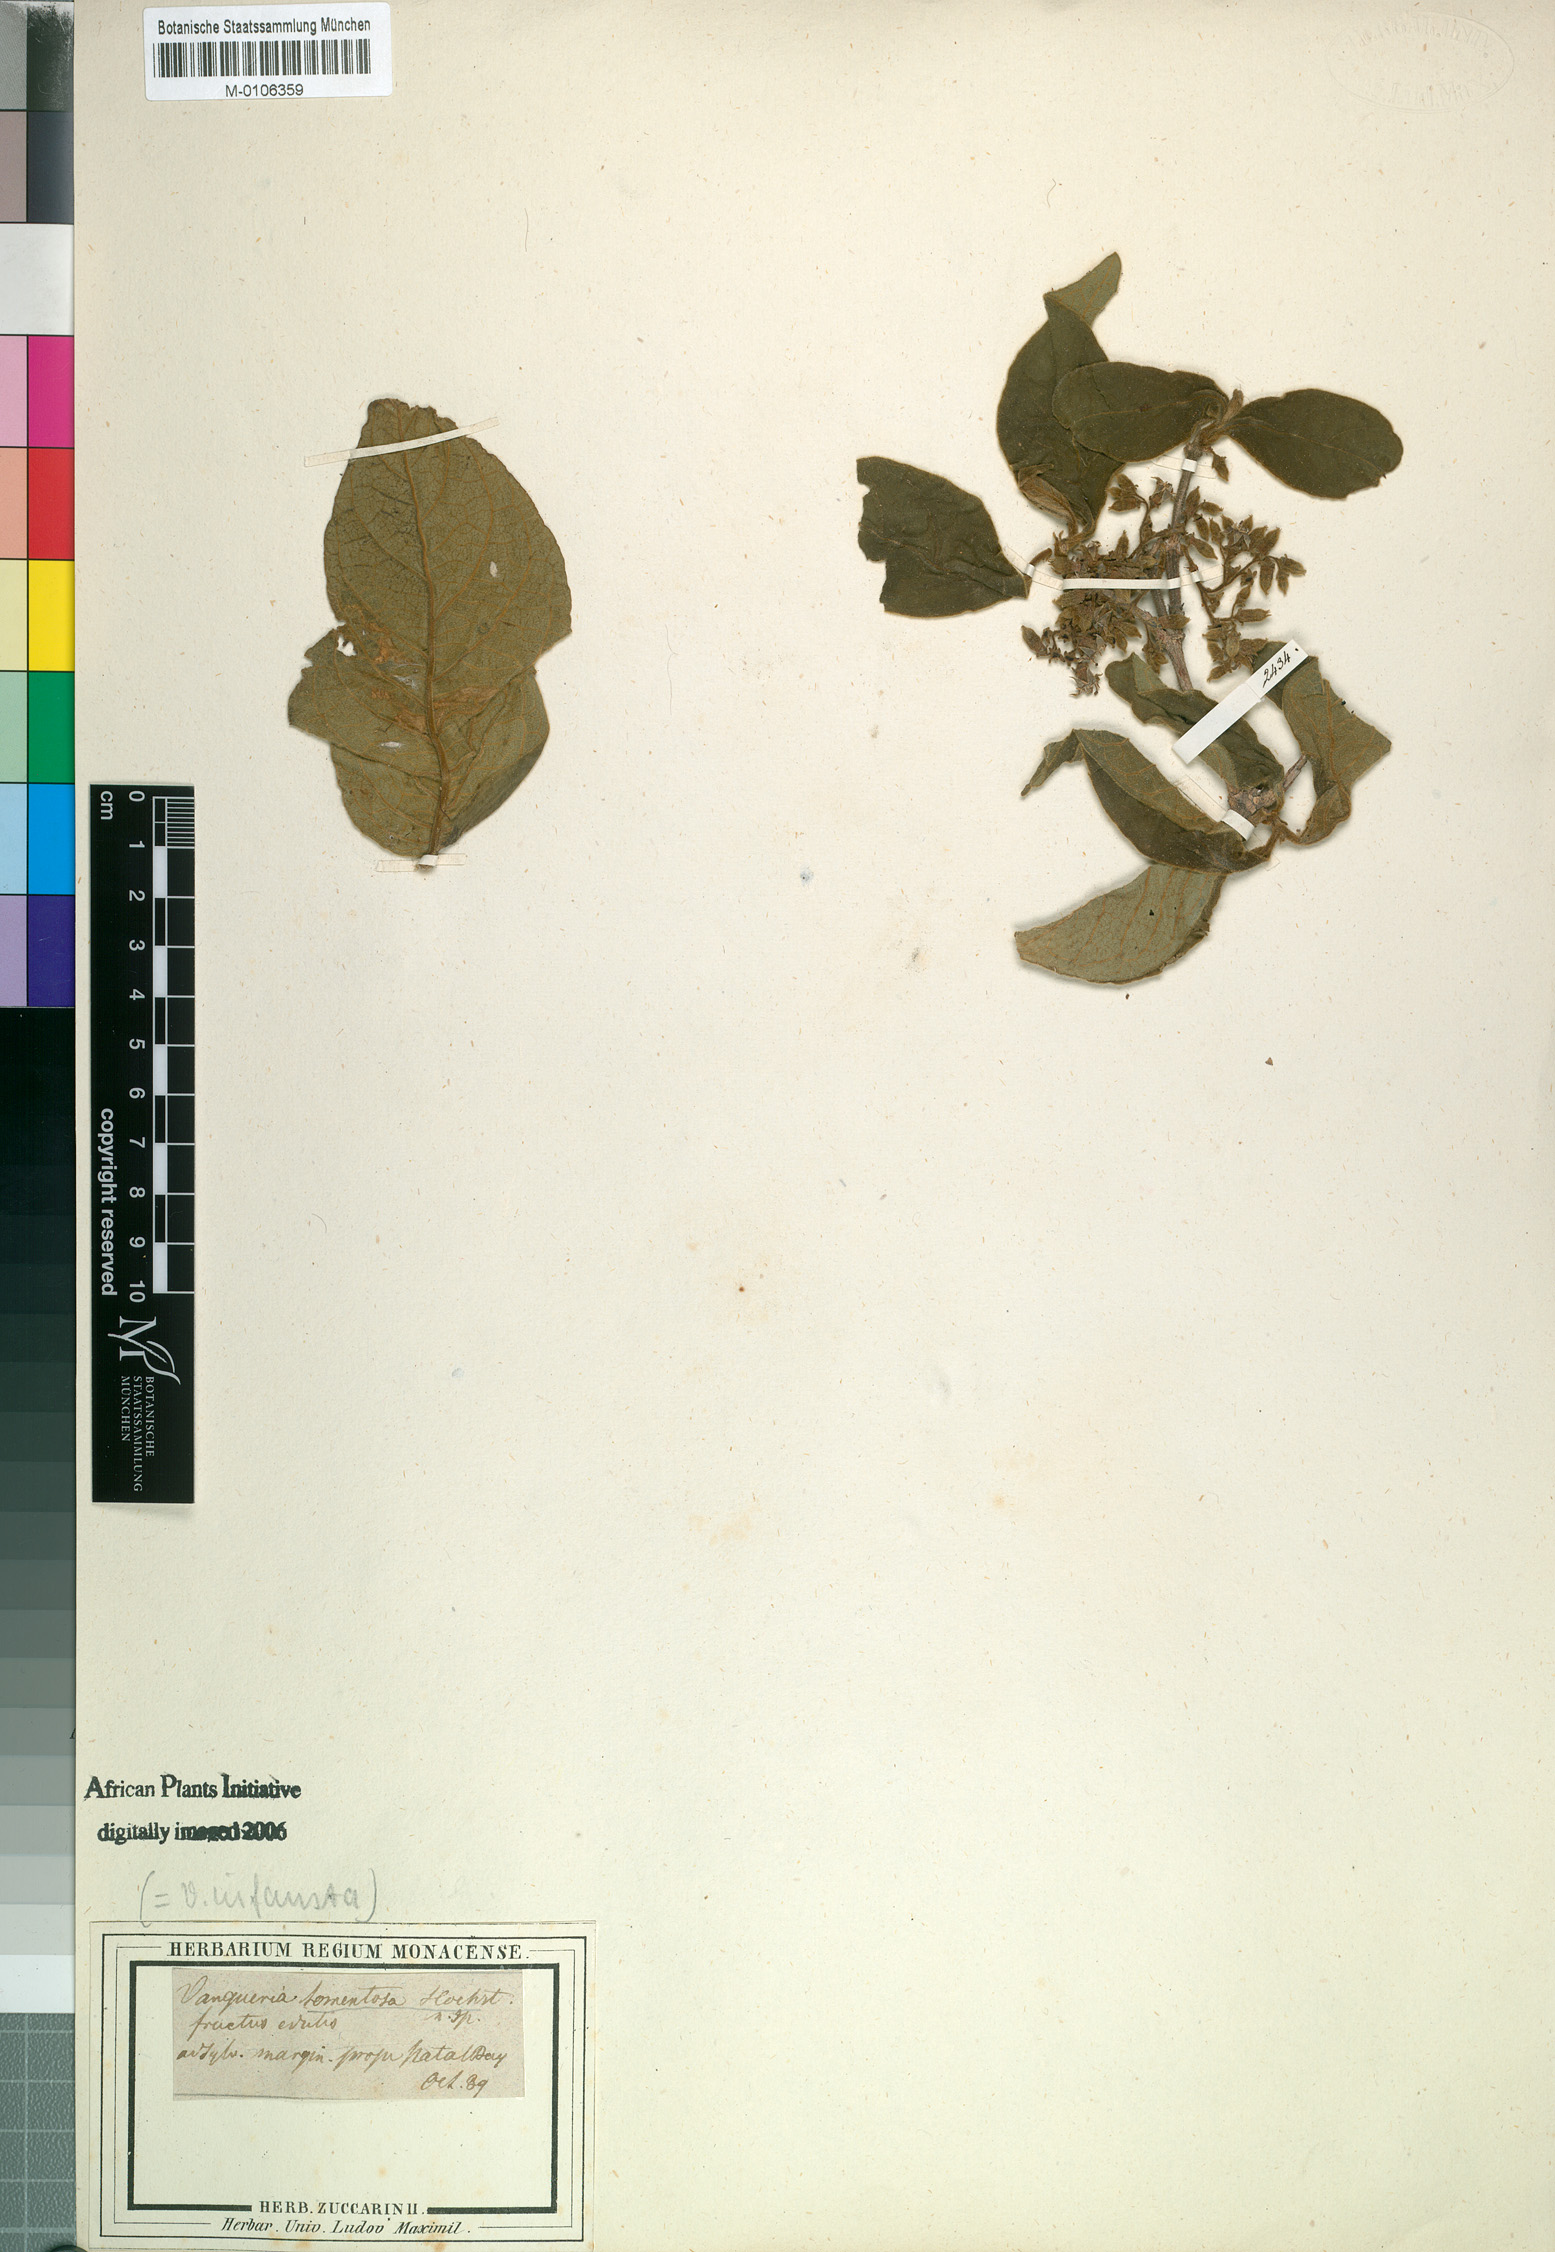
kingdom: Plantae
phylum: Tracheophyta
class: Magnoliopsida
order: Gentianales
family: Rubiaceae
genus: Vangueria
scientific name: Vangueria infausta
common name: Medlar
